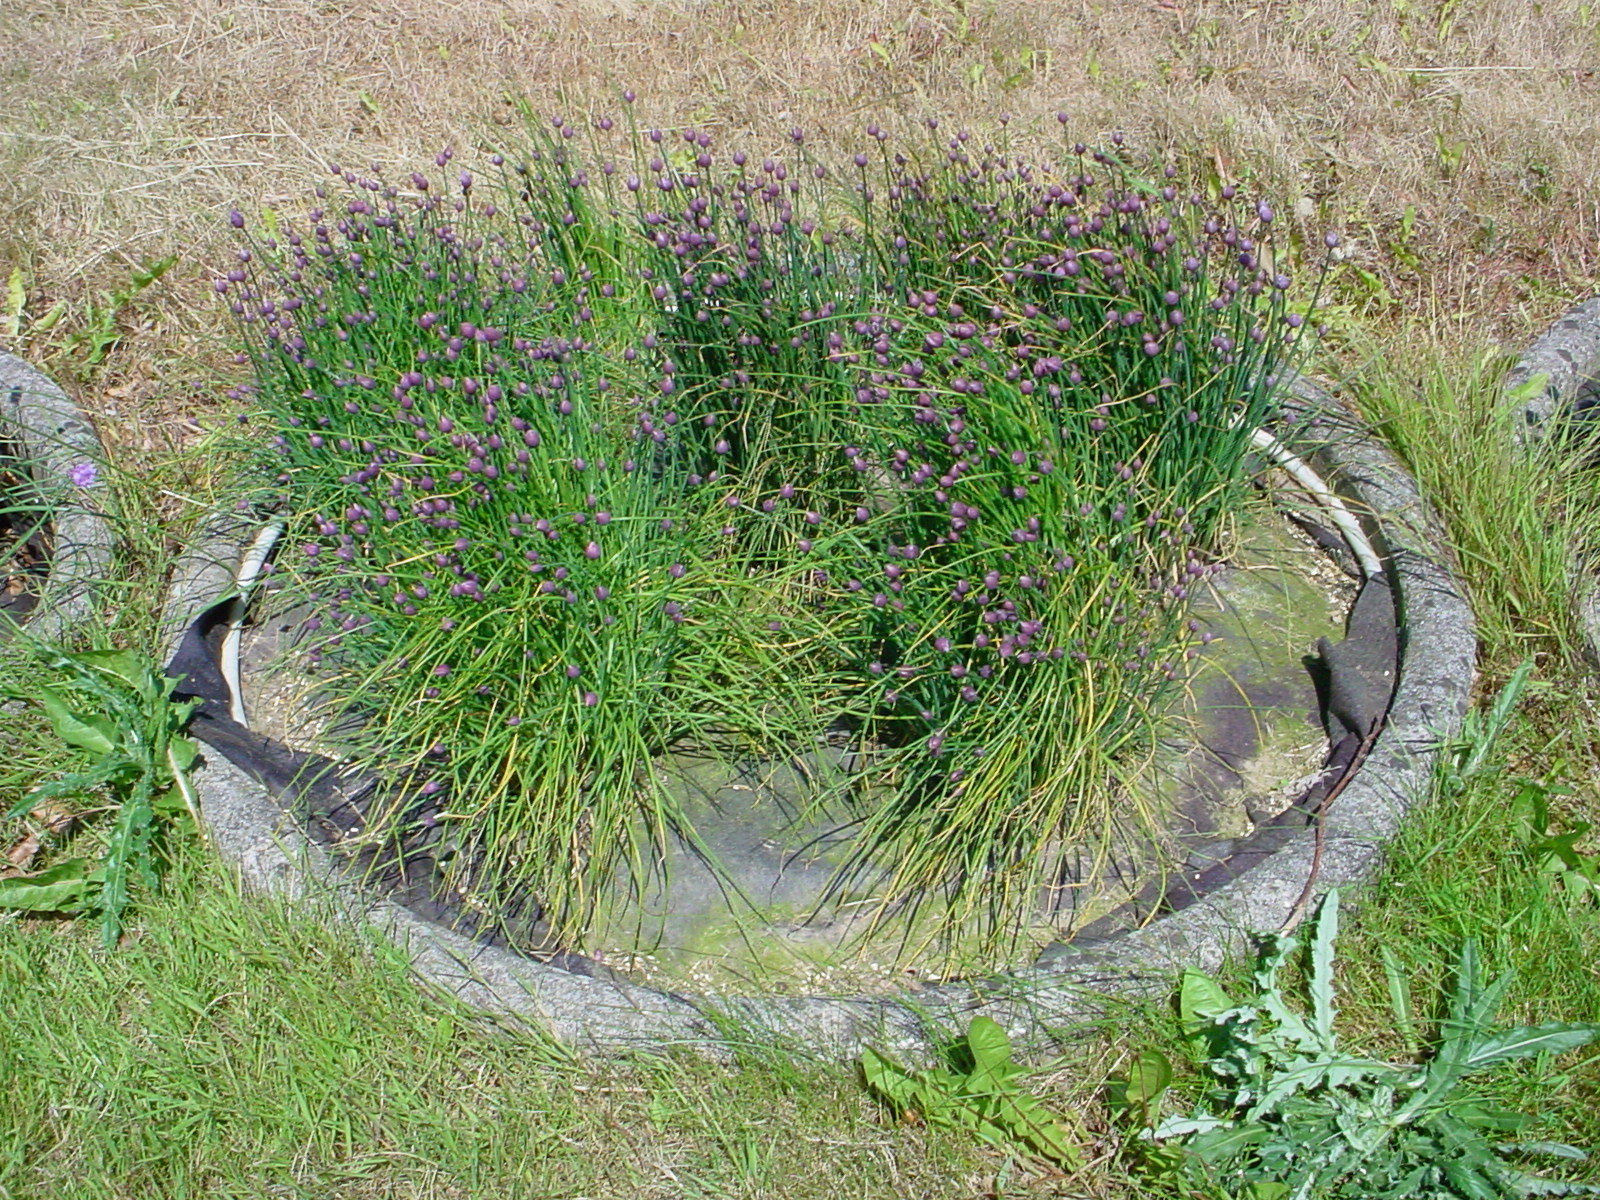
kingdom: Plantae
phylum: Tracheophyta
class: Liliopsida
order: Asparagales
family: Amaryllidaceae
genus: Allium
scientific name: Allium schoenoprasum
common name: Chives
